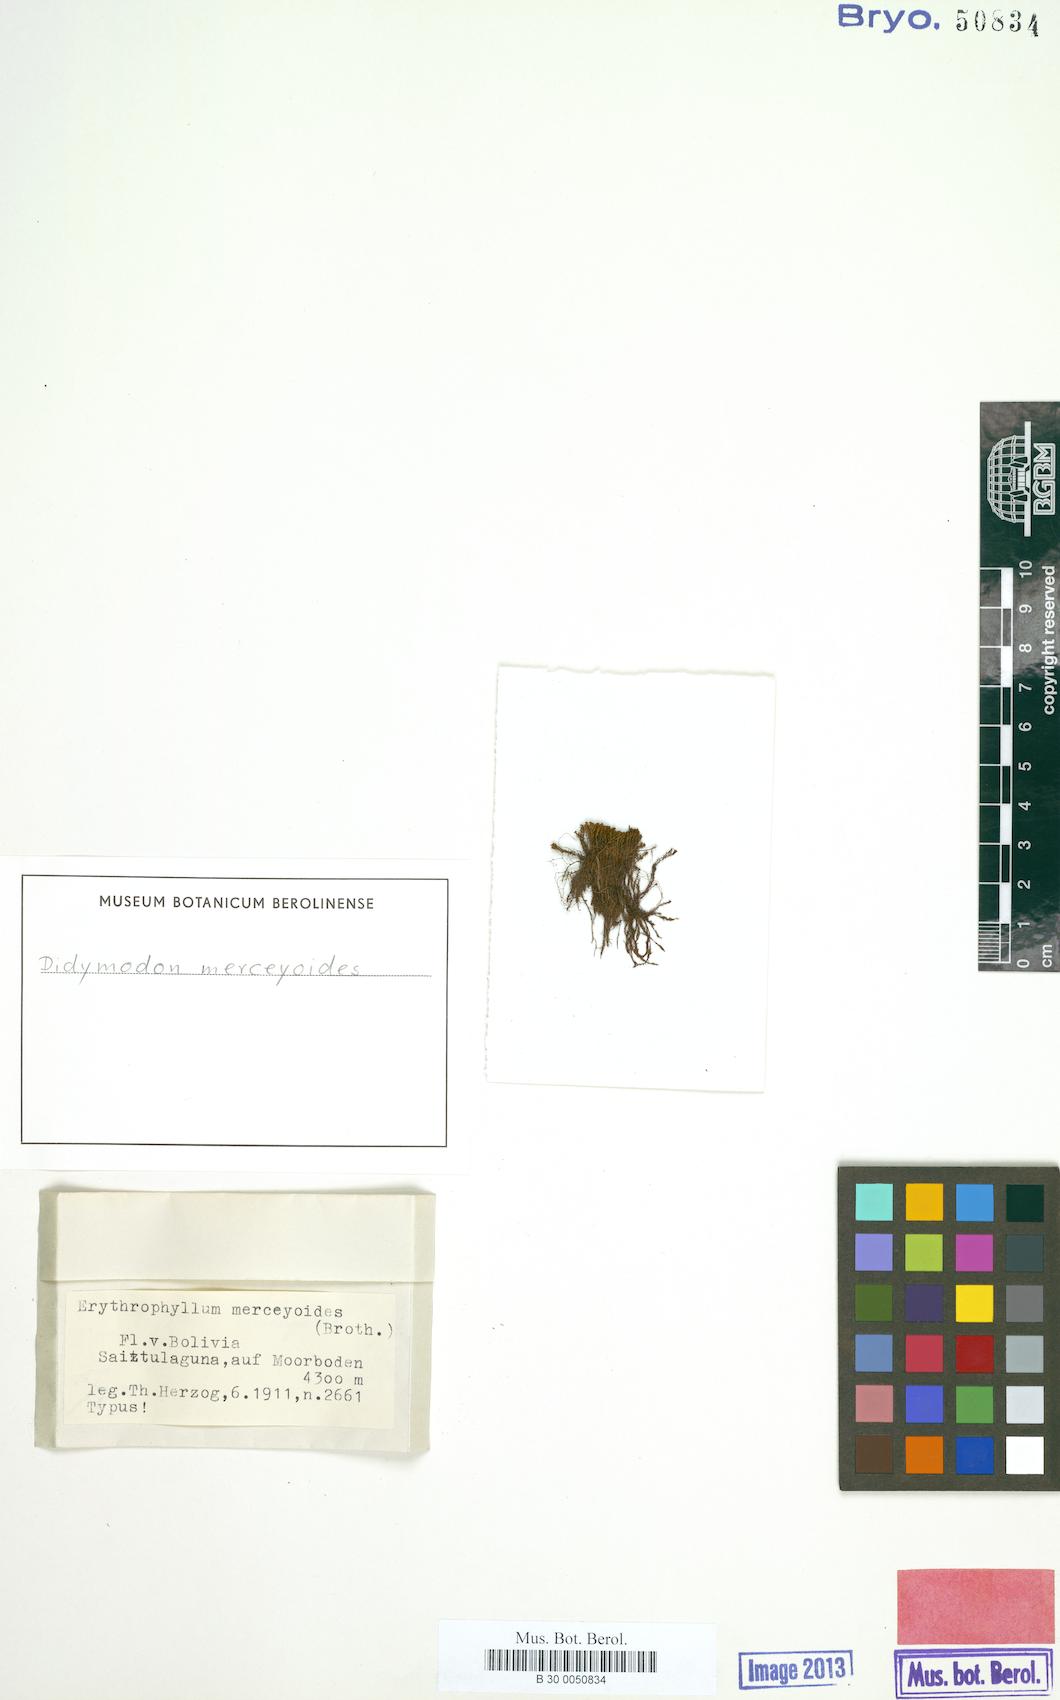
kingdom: Plantae
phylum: Bryophyta
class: Bryopsida
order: Pottiales
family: Pottiaceae
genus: Bryoerythrophyllum
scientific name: Bryoerythrophyllum campylocarpum
